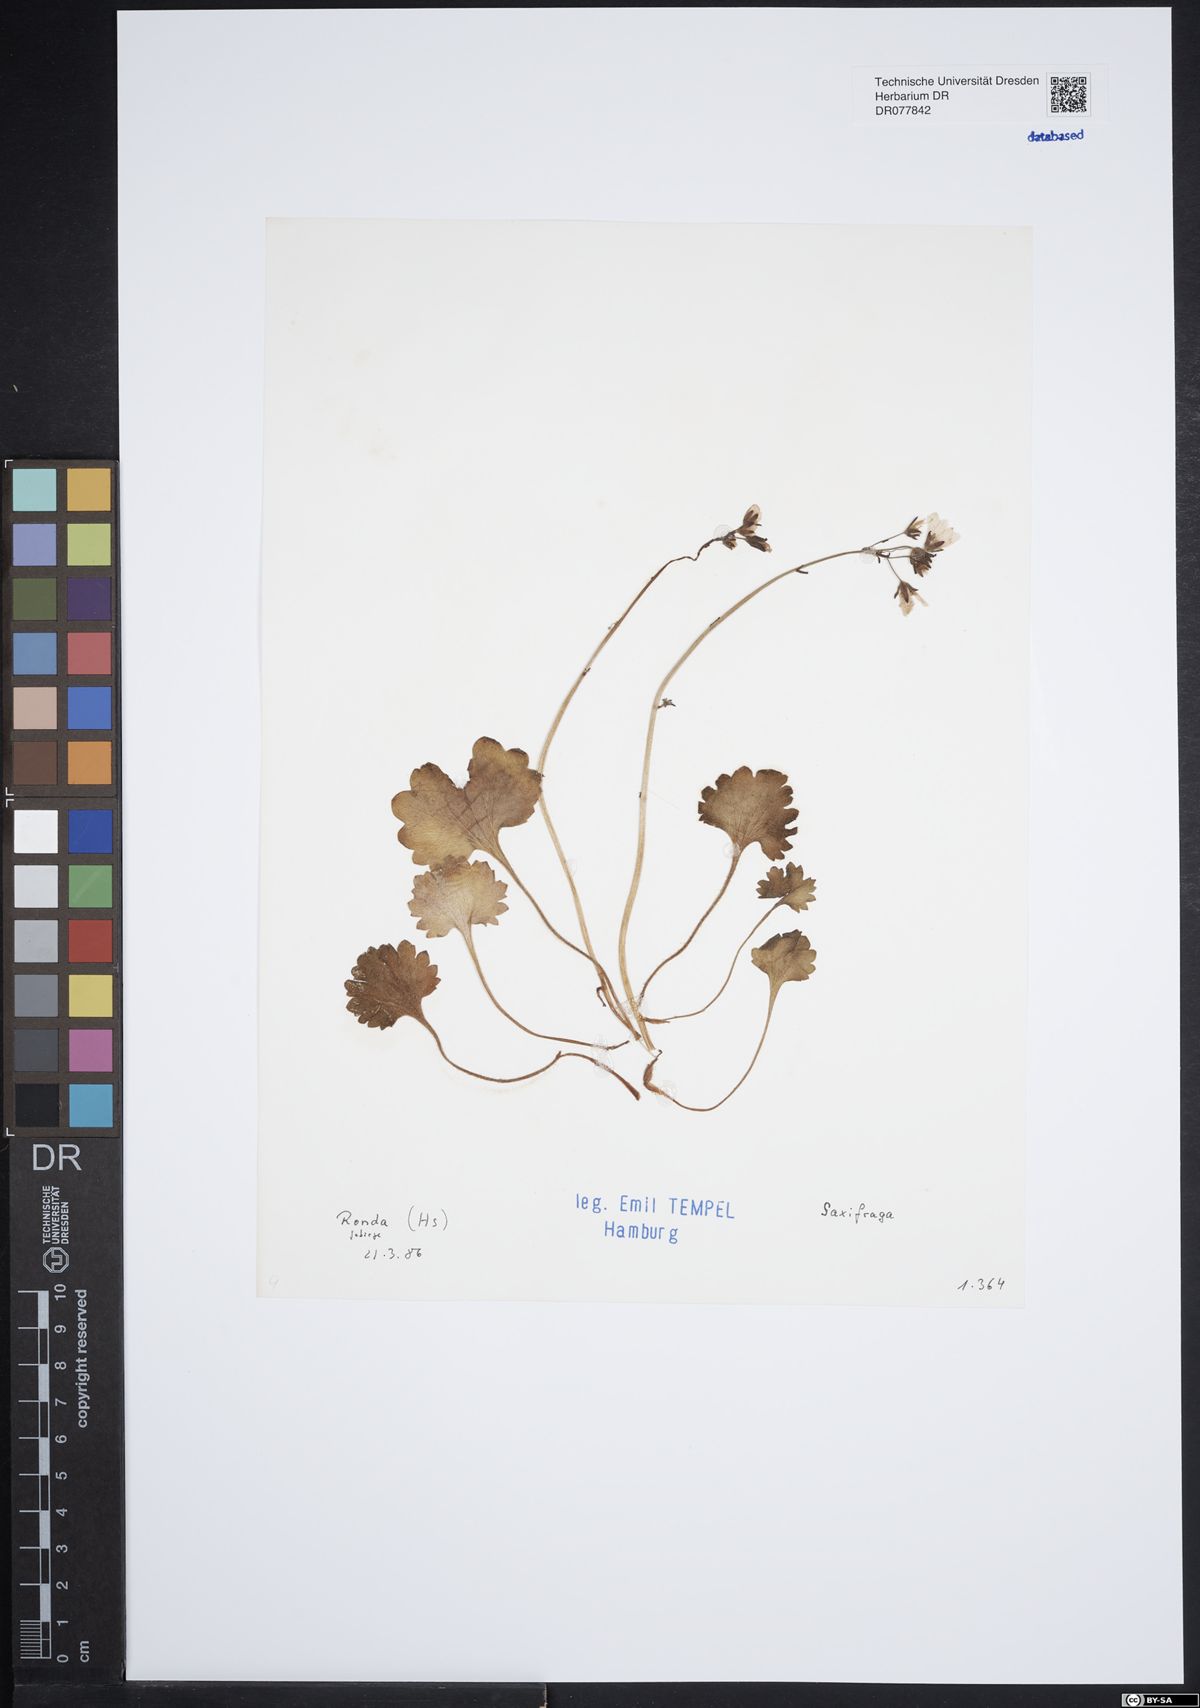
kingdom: Plantae
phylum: Tracheophyta
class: Magnoliopsida
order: Saxifragales
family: Saxifragaceae
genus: Saxifraga
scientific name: Saxifraga
